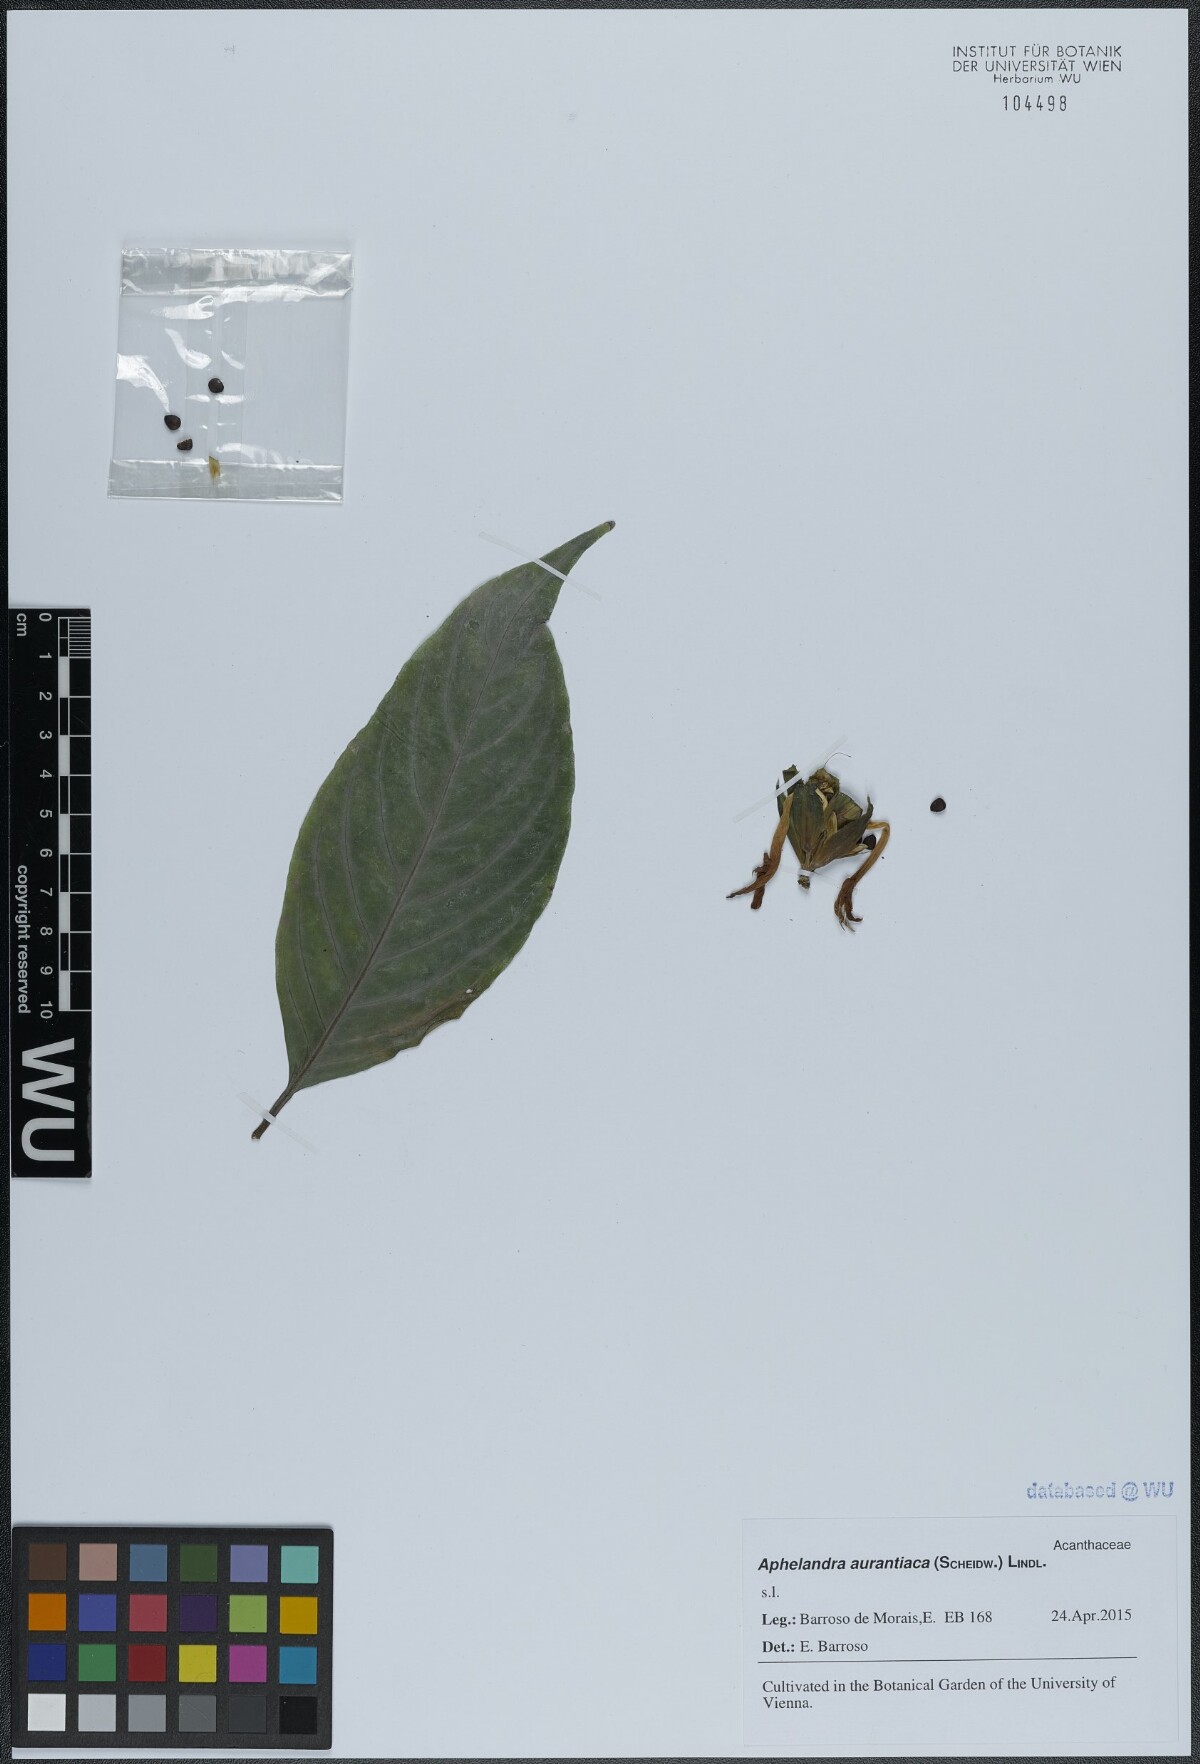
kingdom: Plantae
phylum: Tracheophyta
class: Magnoliopsida
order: Lamiales
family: Acanthaceae
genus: Aphelandra
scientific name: Aphelandra aurantiaca
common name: Fiery spike
